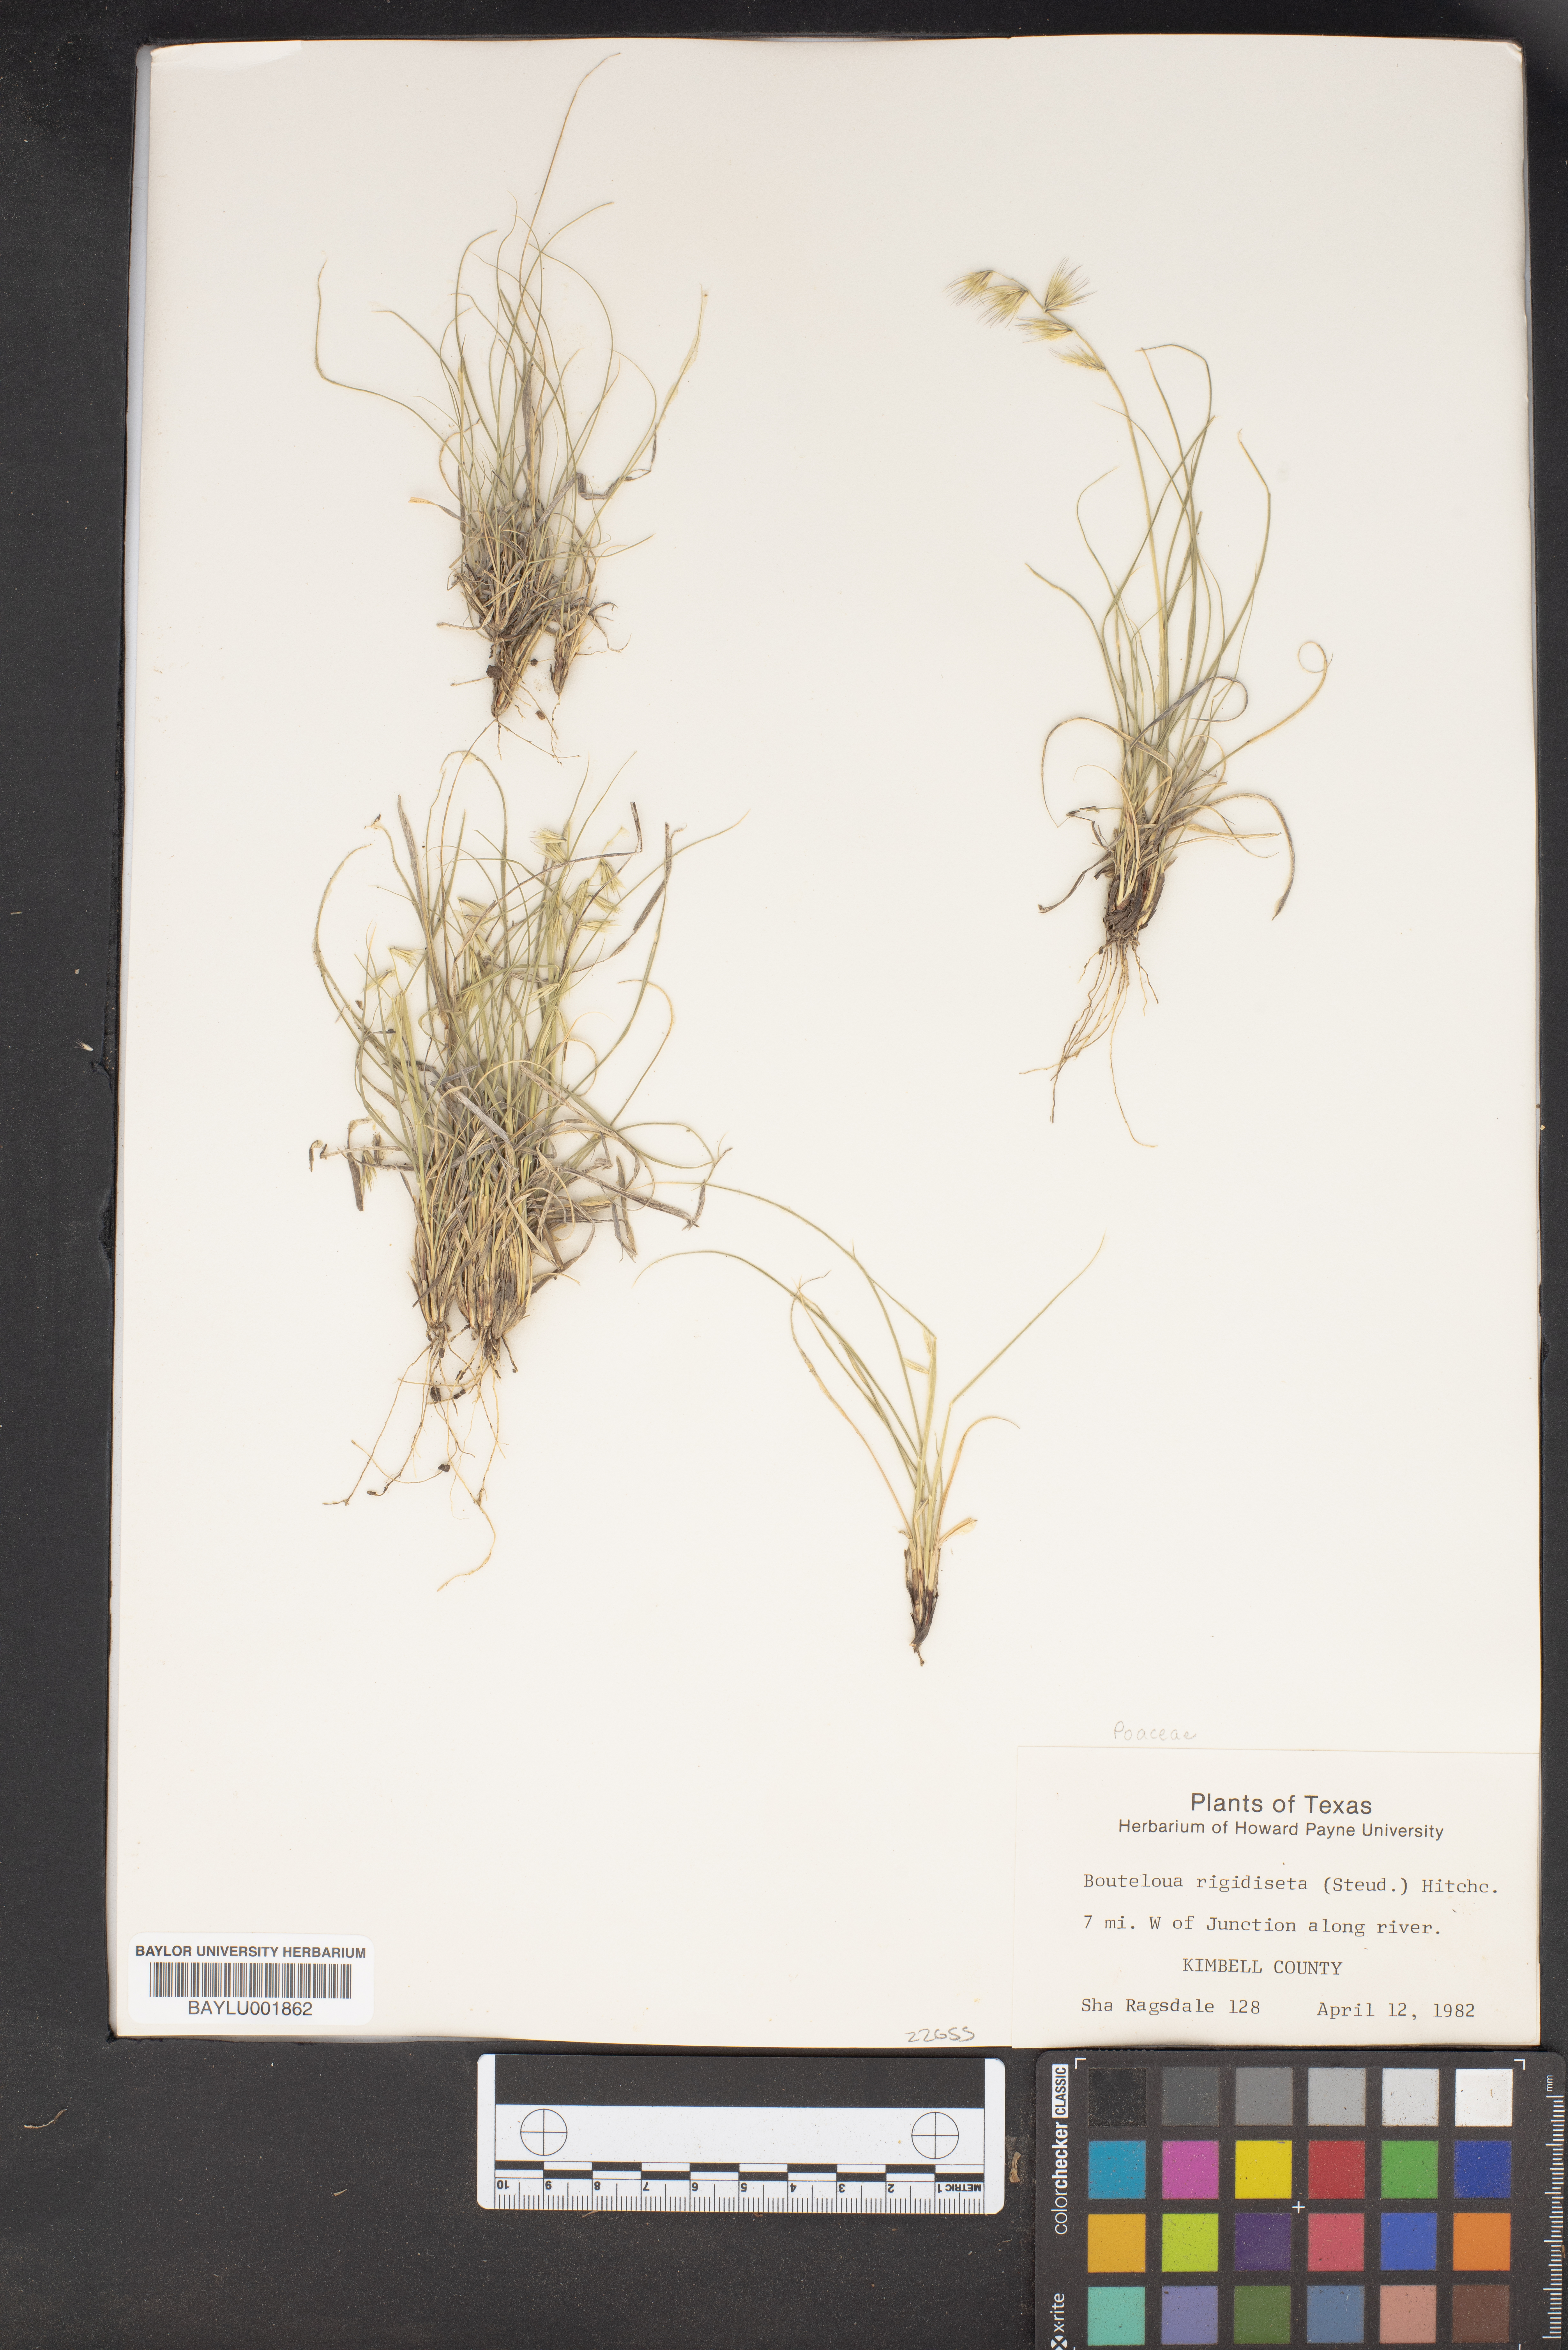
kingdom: Plantae
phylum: Tracheophyta
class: Liliopsida
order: Poales
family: Poaceae
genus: Bouteloua
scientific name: Bouteloua rigidiseta
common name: Texas grama
